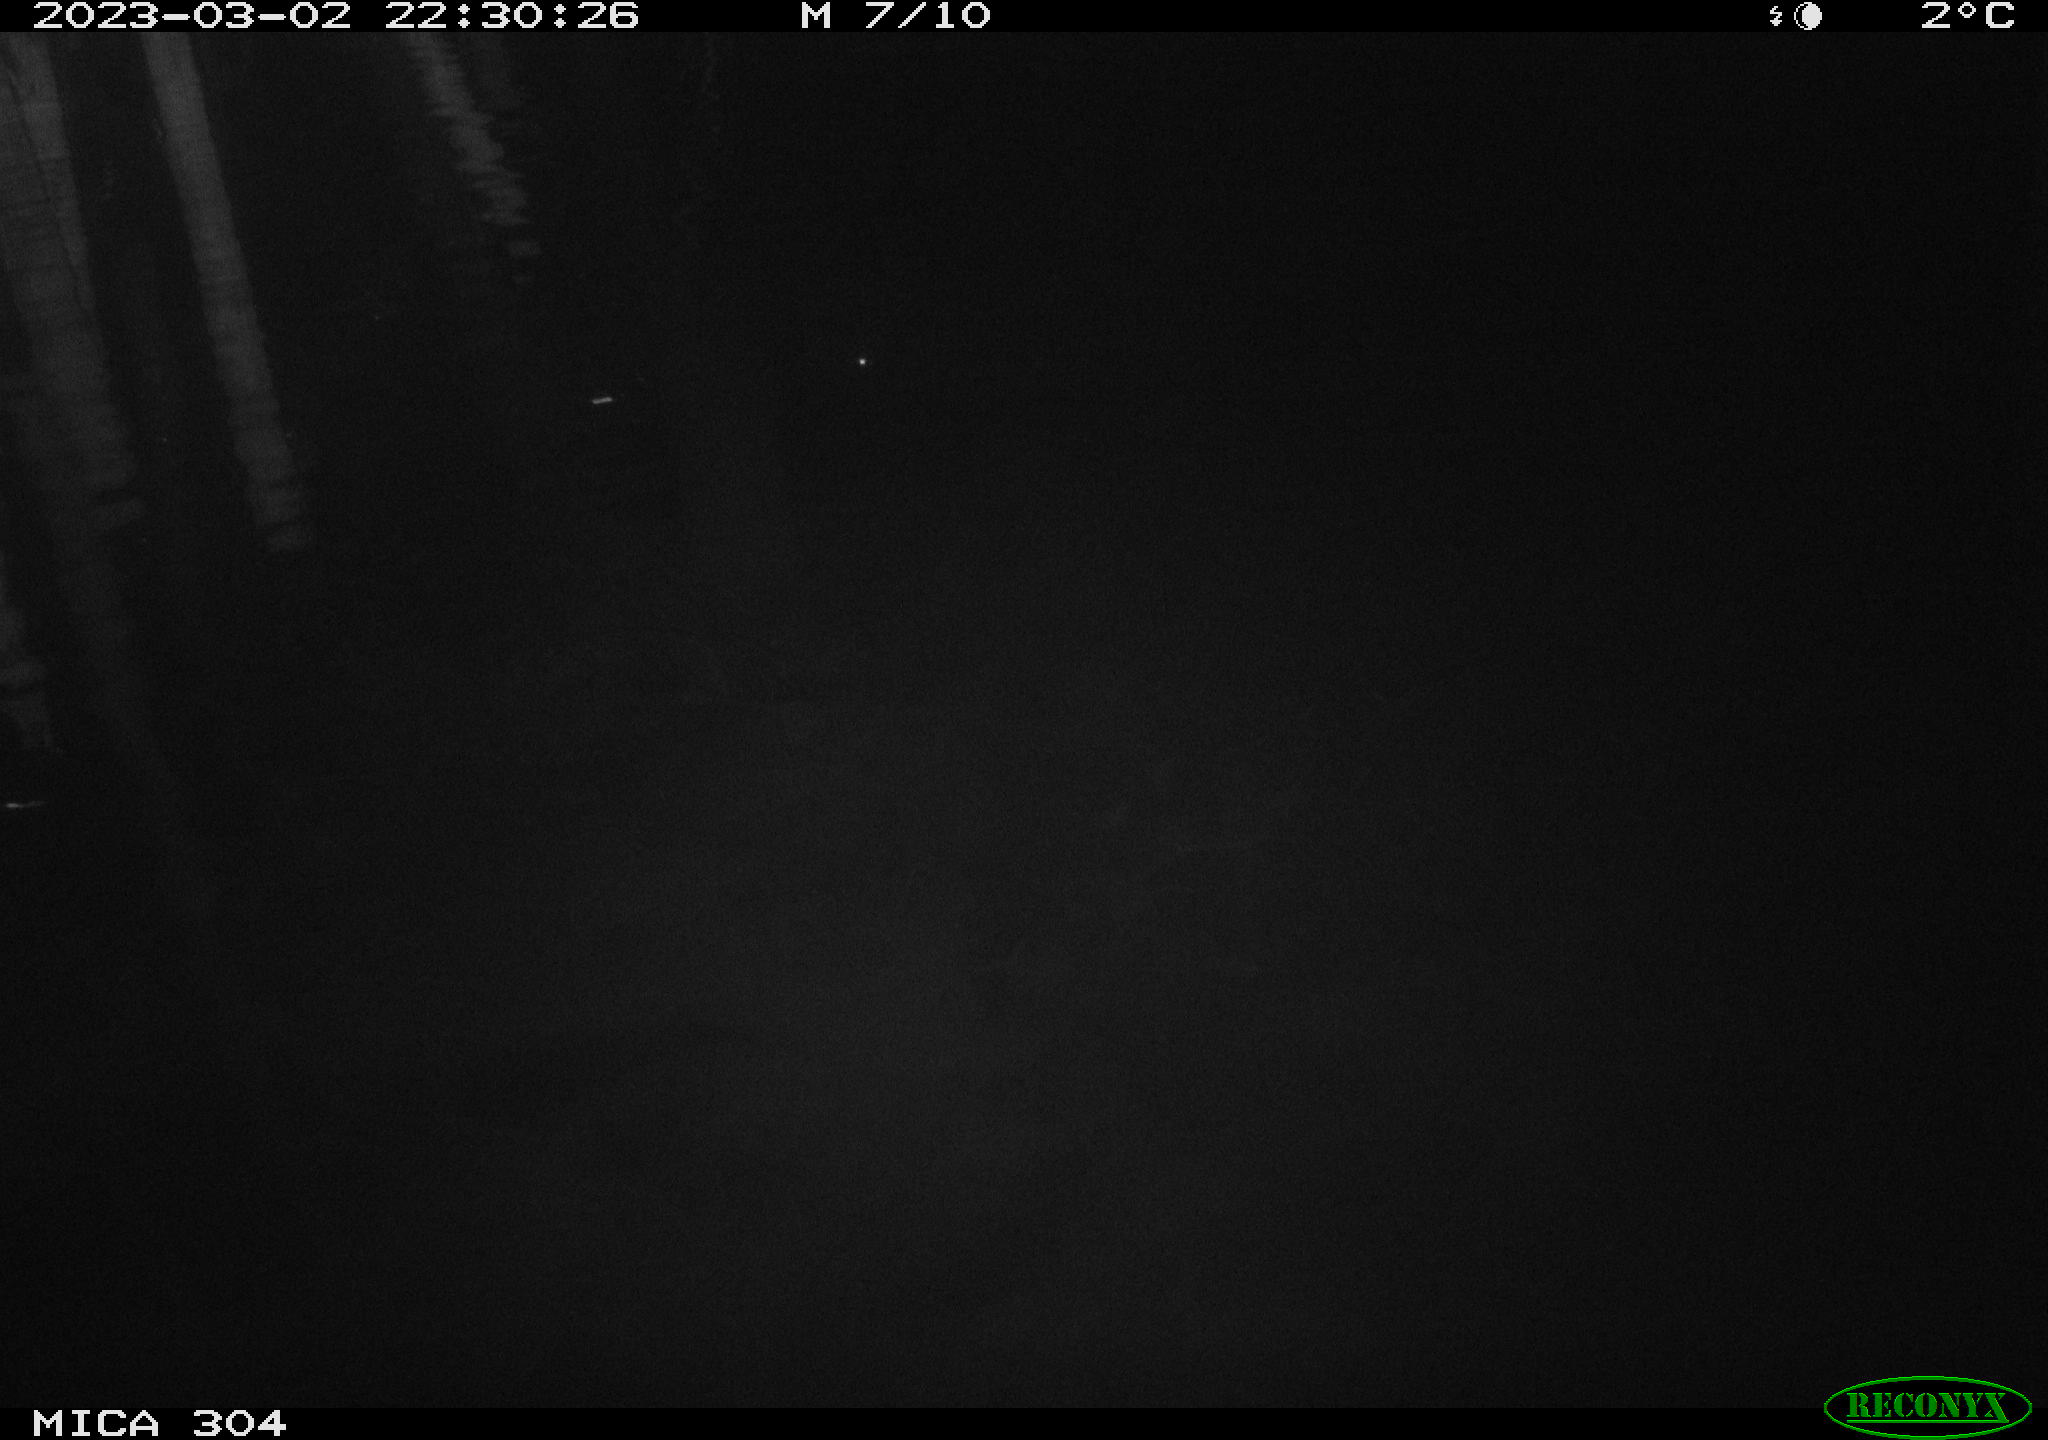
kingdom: Animalia
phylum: Chordata
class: Aves
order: Anseriformes
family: Anatidae
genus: Anas
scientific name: Anas
